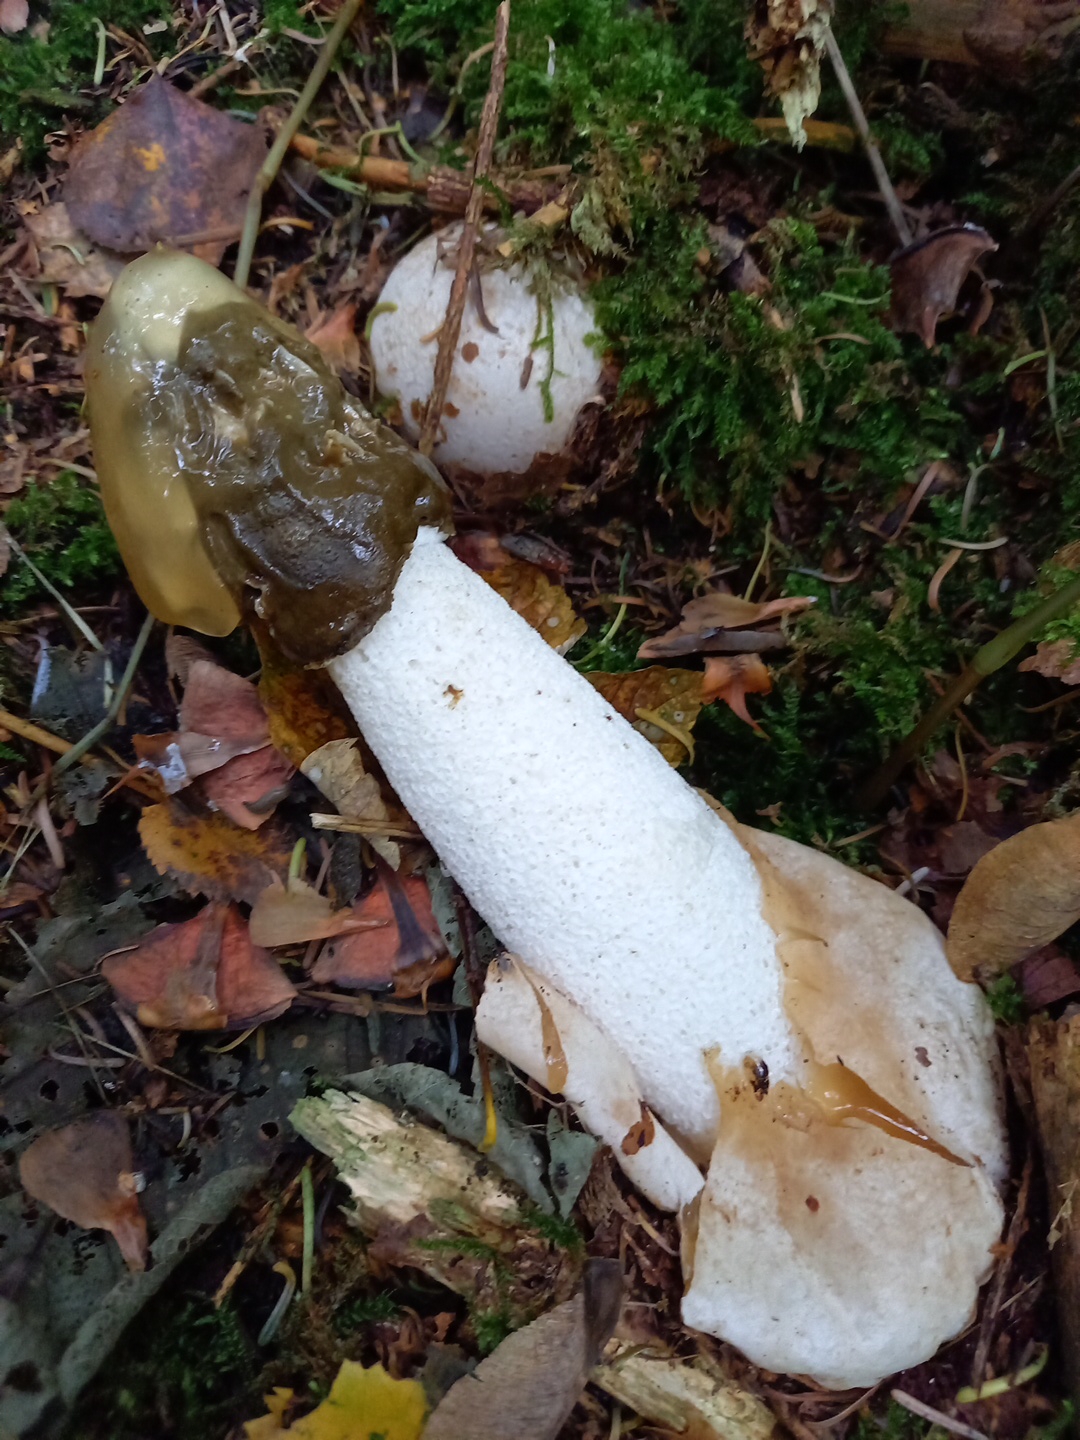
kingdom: Fungi
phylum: Basidiomycota
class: Agaricomycetes
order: Phallales
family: Phallaceae
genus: Phallus
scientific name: Phallus impudicus
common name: almindelig stinksvamp
